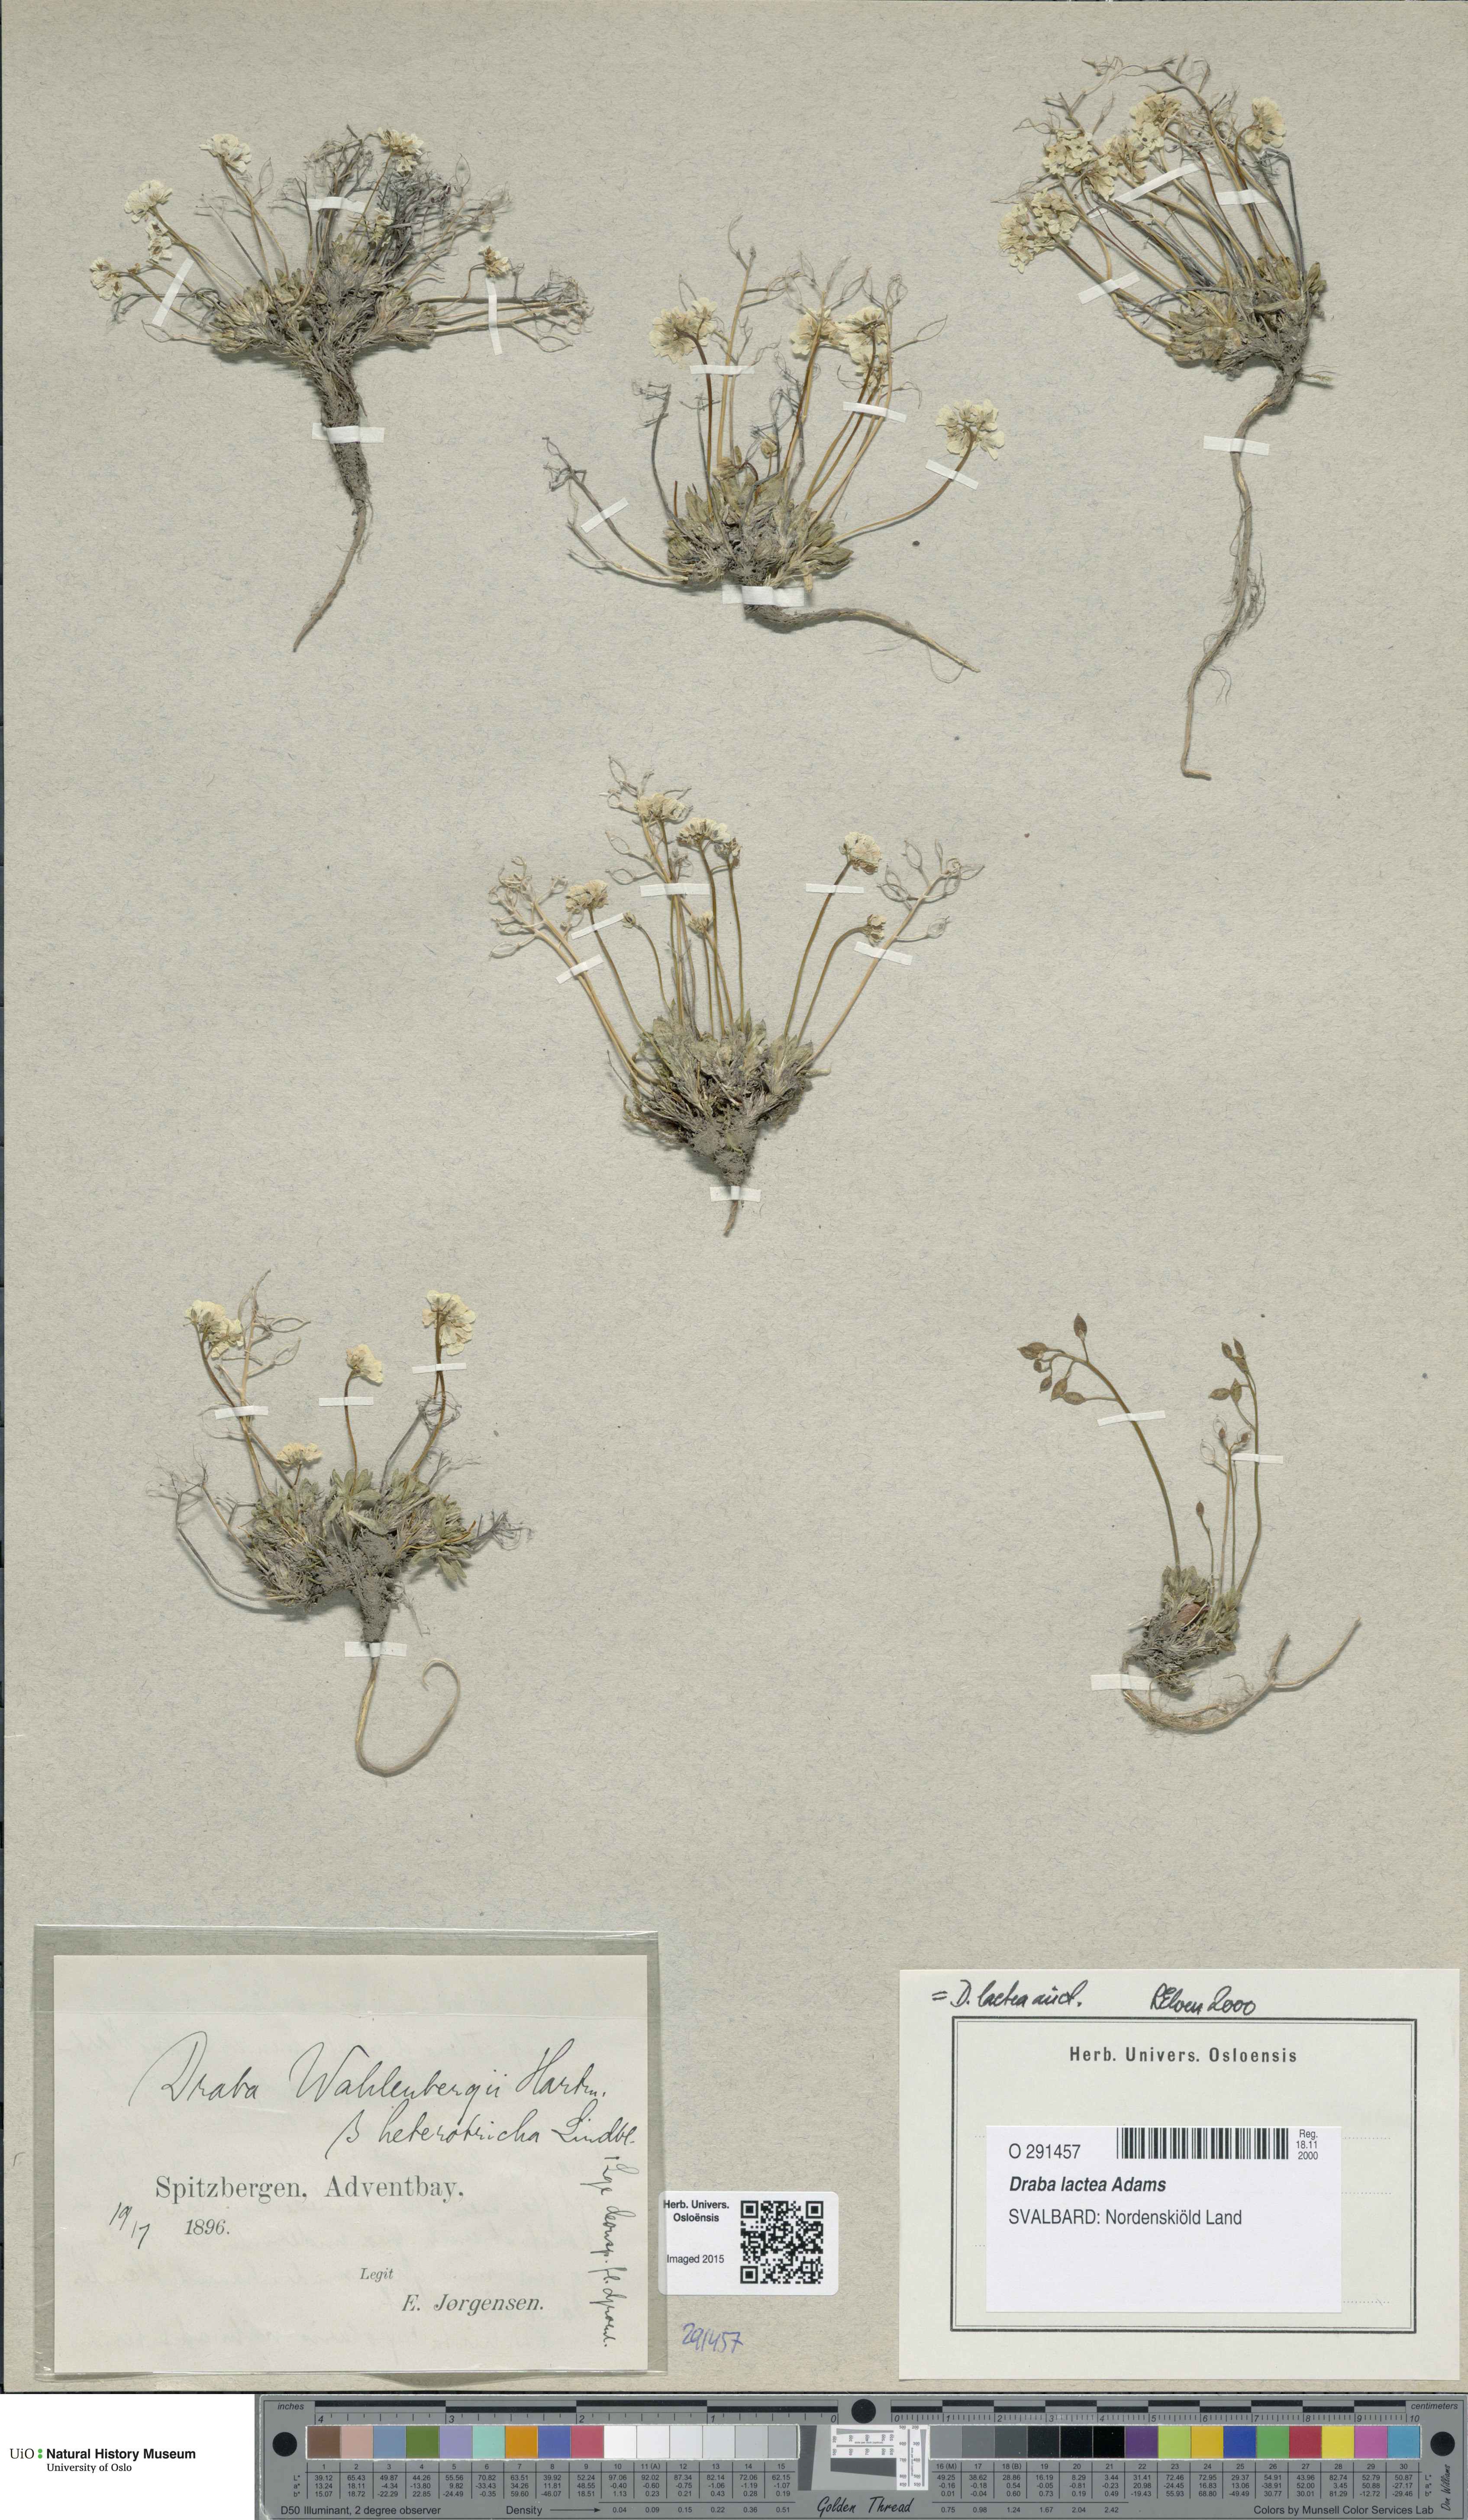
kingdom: Plantae
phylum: Tracheophyta
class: Magnoliopsida
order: Brassicales
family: Brassicaceae
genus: Draba
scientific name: Draba lactea
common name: Milky draba
